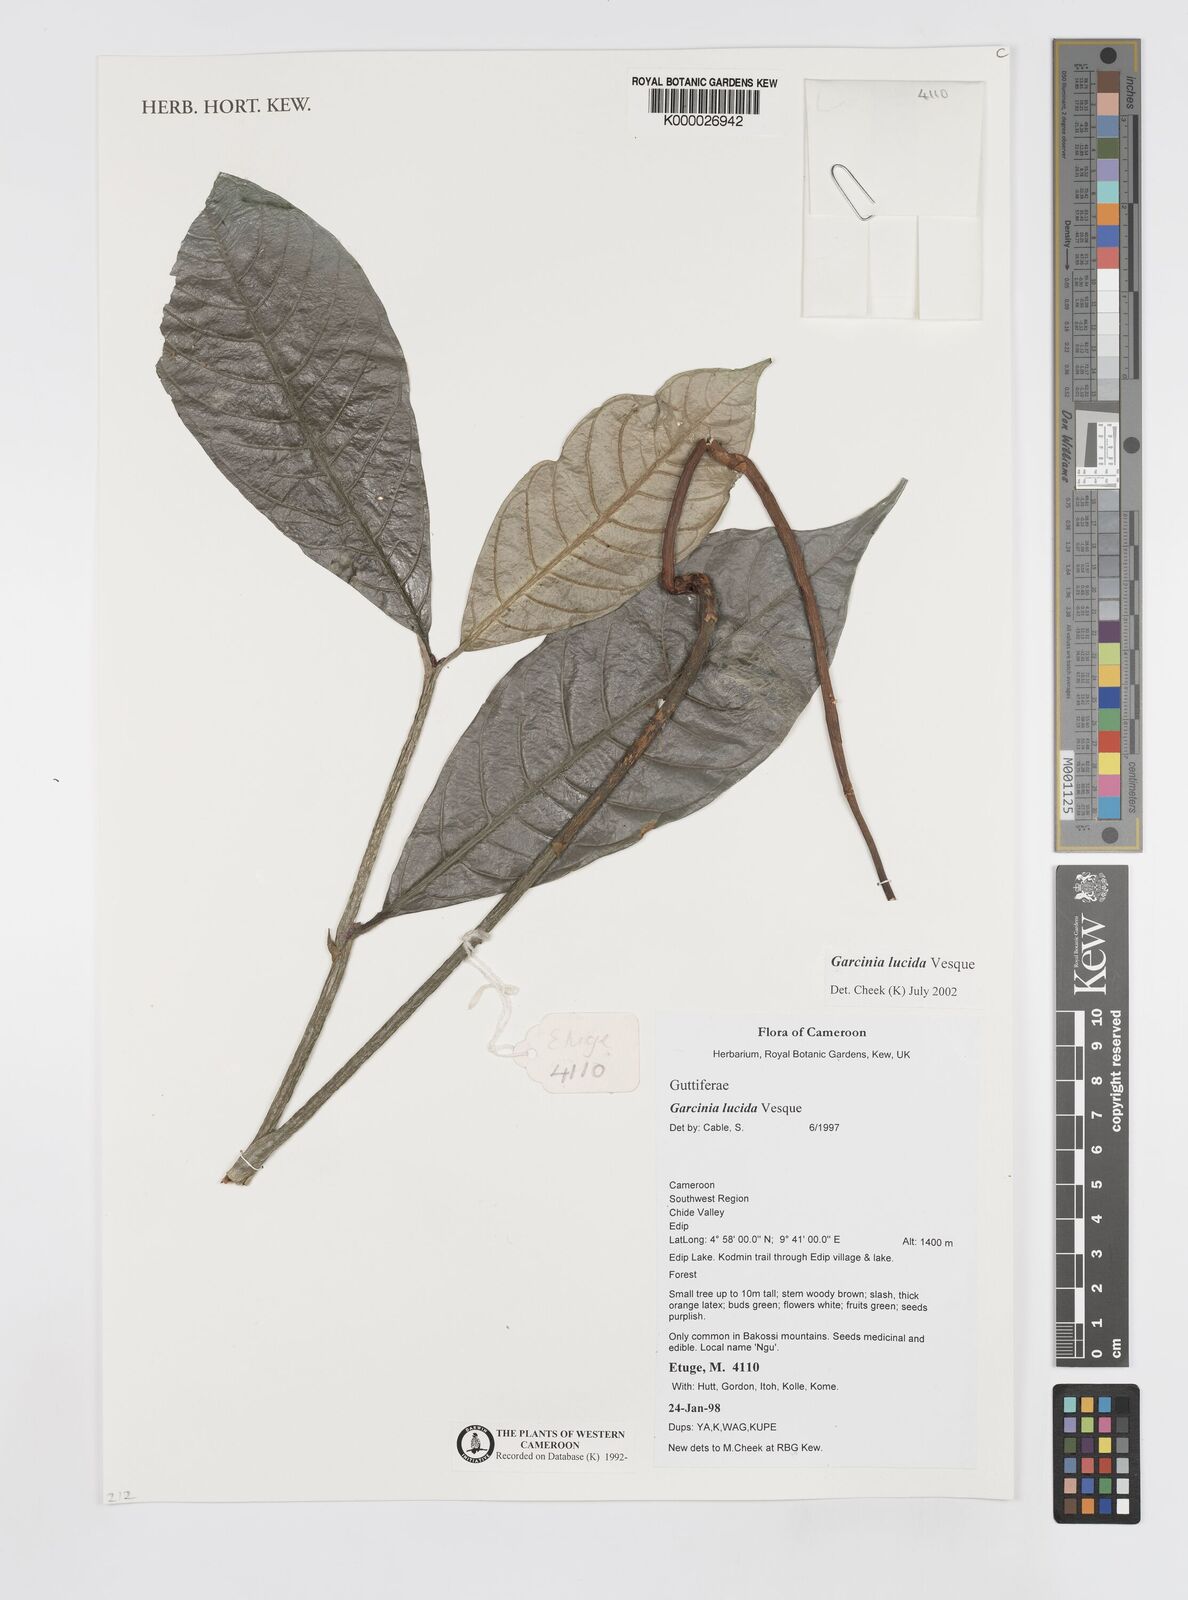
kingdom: Plantae
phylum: Tracheophyta
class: Magnoliopsida
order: Malpighiales
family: Clusiaceae
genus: Garcinia
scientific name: Garcinia lucida
